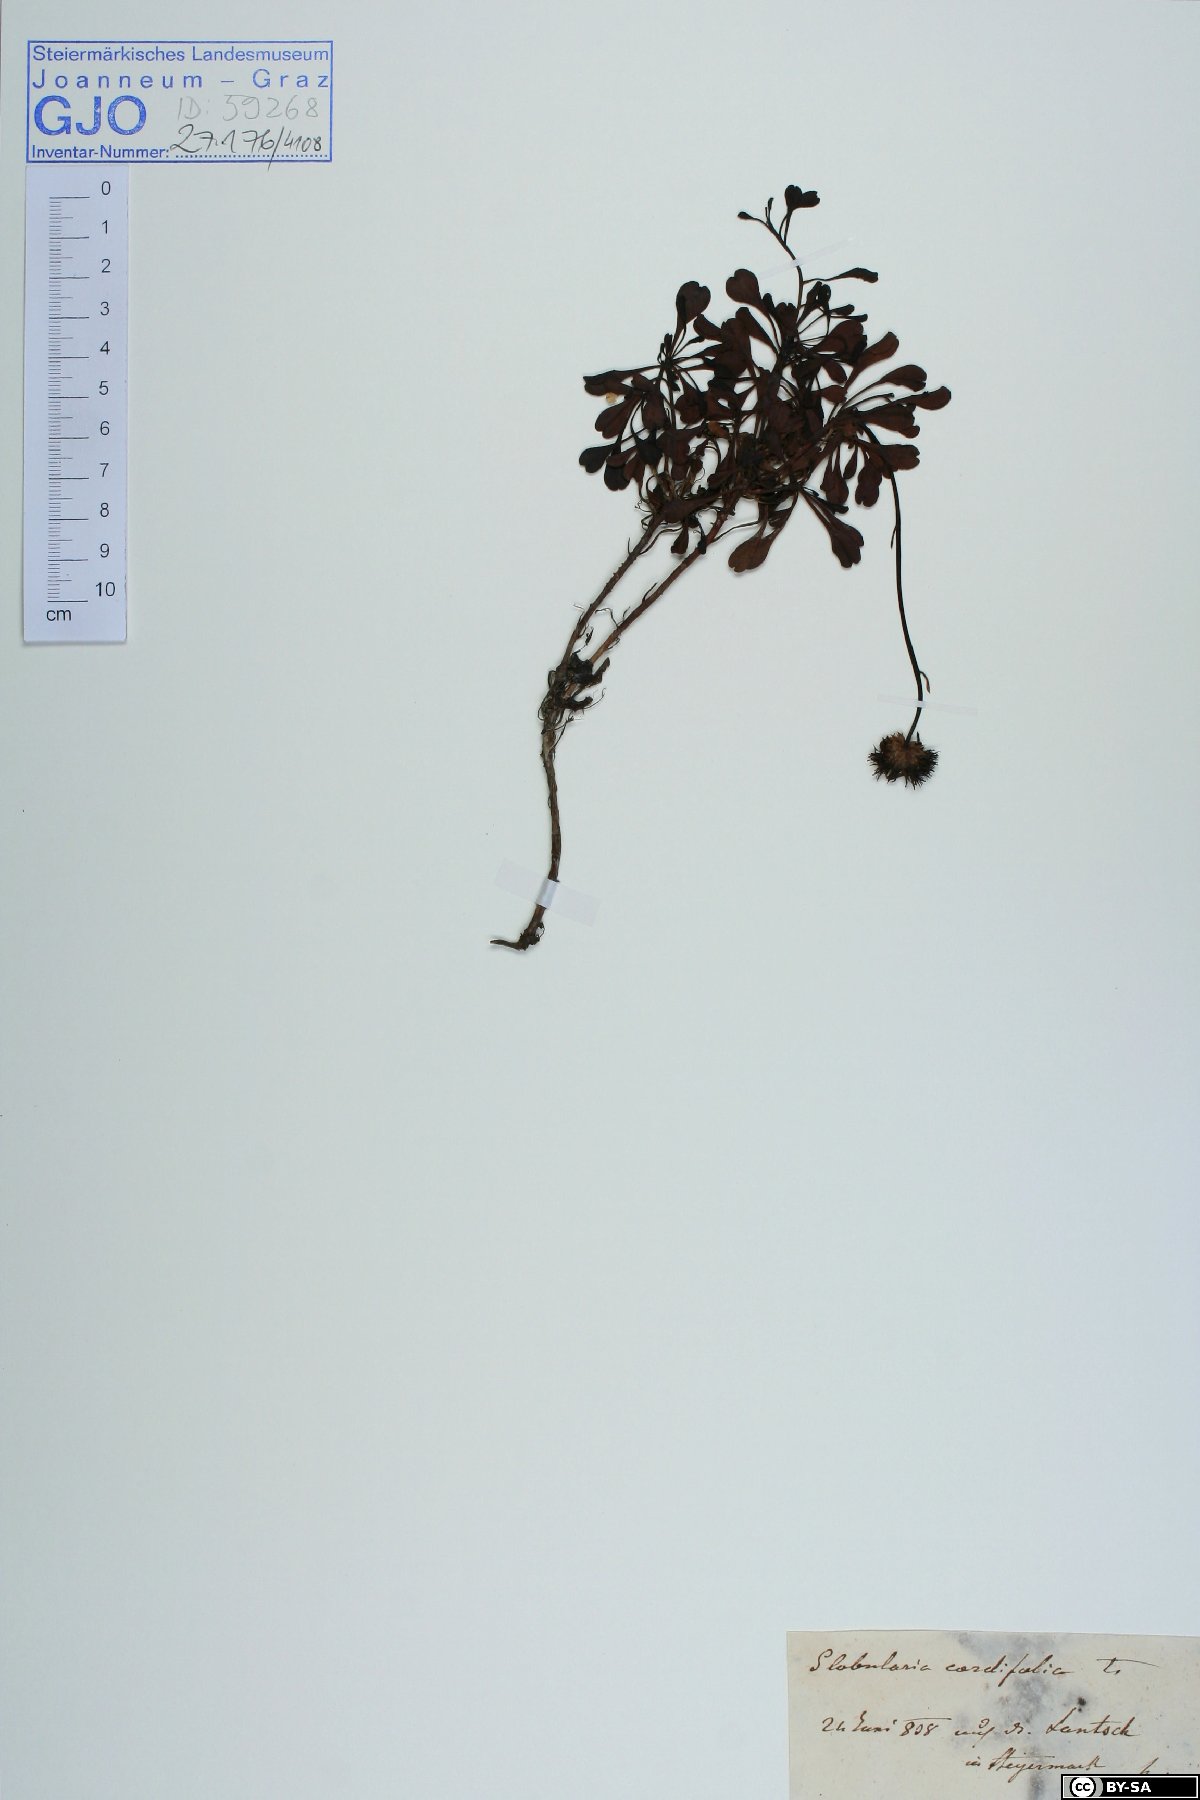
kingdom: Plantae
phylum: Tracheophyta
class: Magnoliopsida
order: Lamiales
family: Plantaginaceae
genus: Globularia
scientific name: Globularia cordifolia
